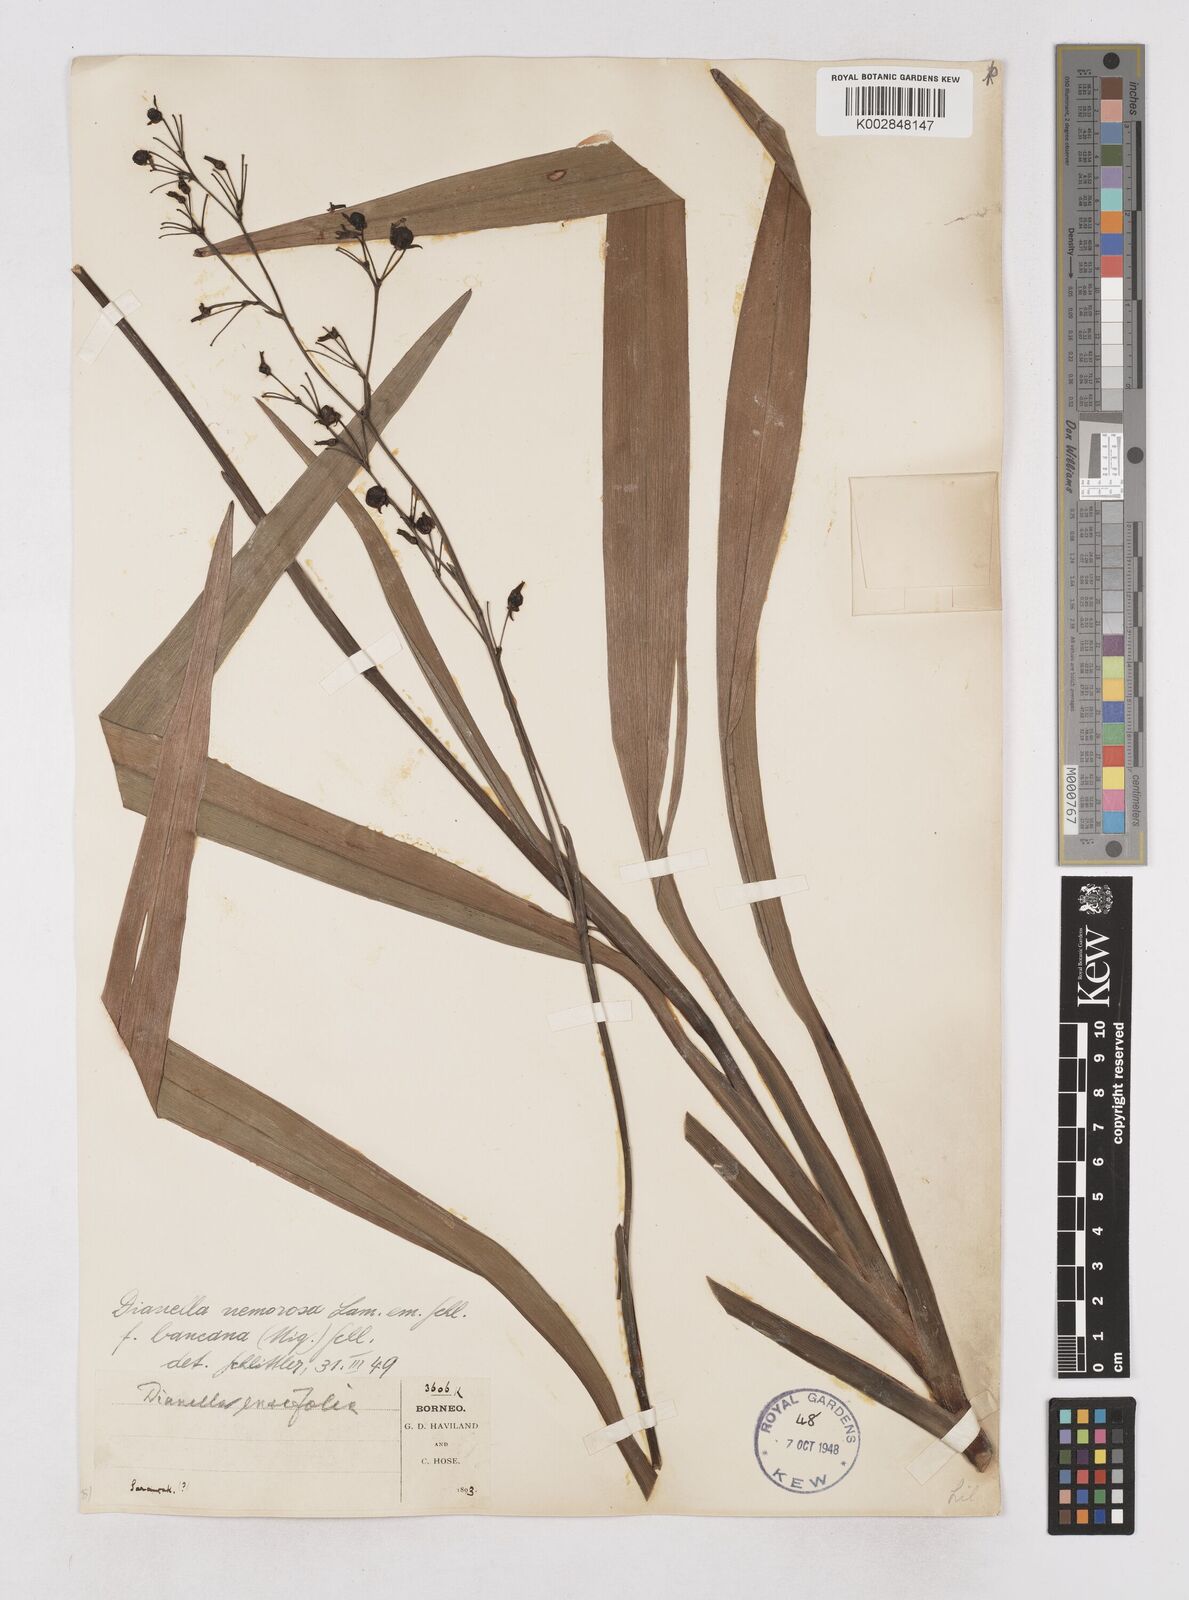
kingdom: Plantae
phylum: Tracheophyta
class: Liliopsida
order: Asparagales
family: Asphodelaceae
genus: Dianella
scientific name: Dianella ensifolia
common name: New zealand lilyplant
